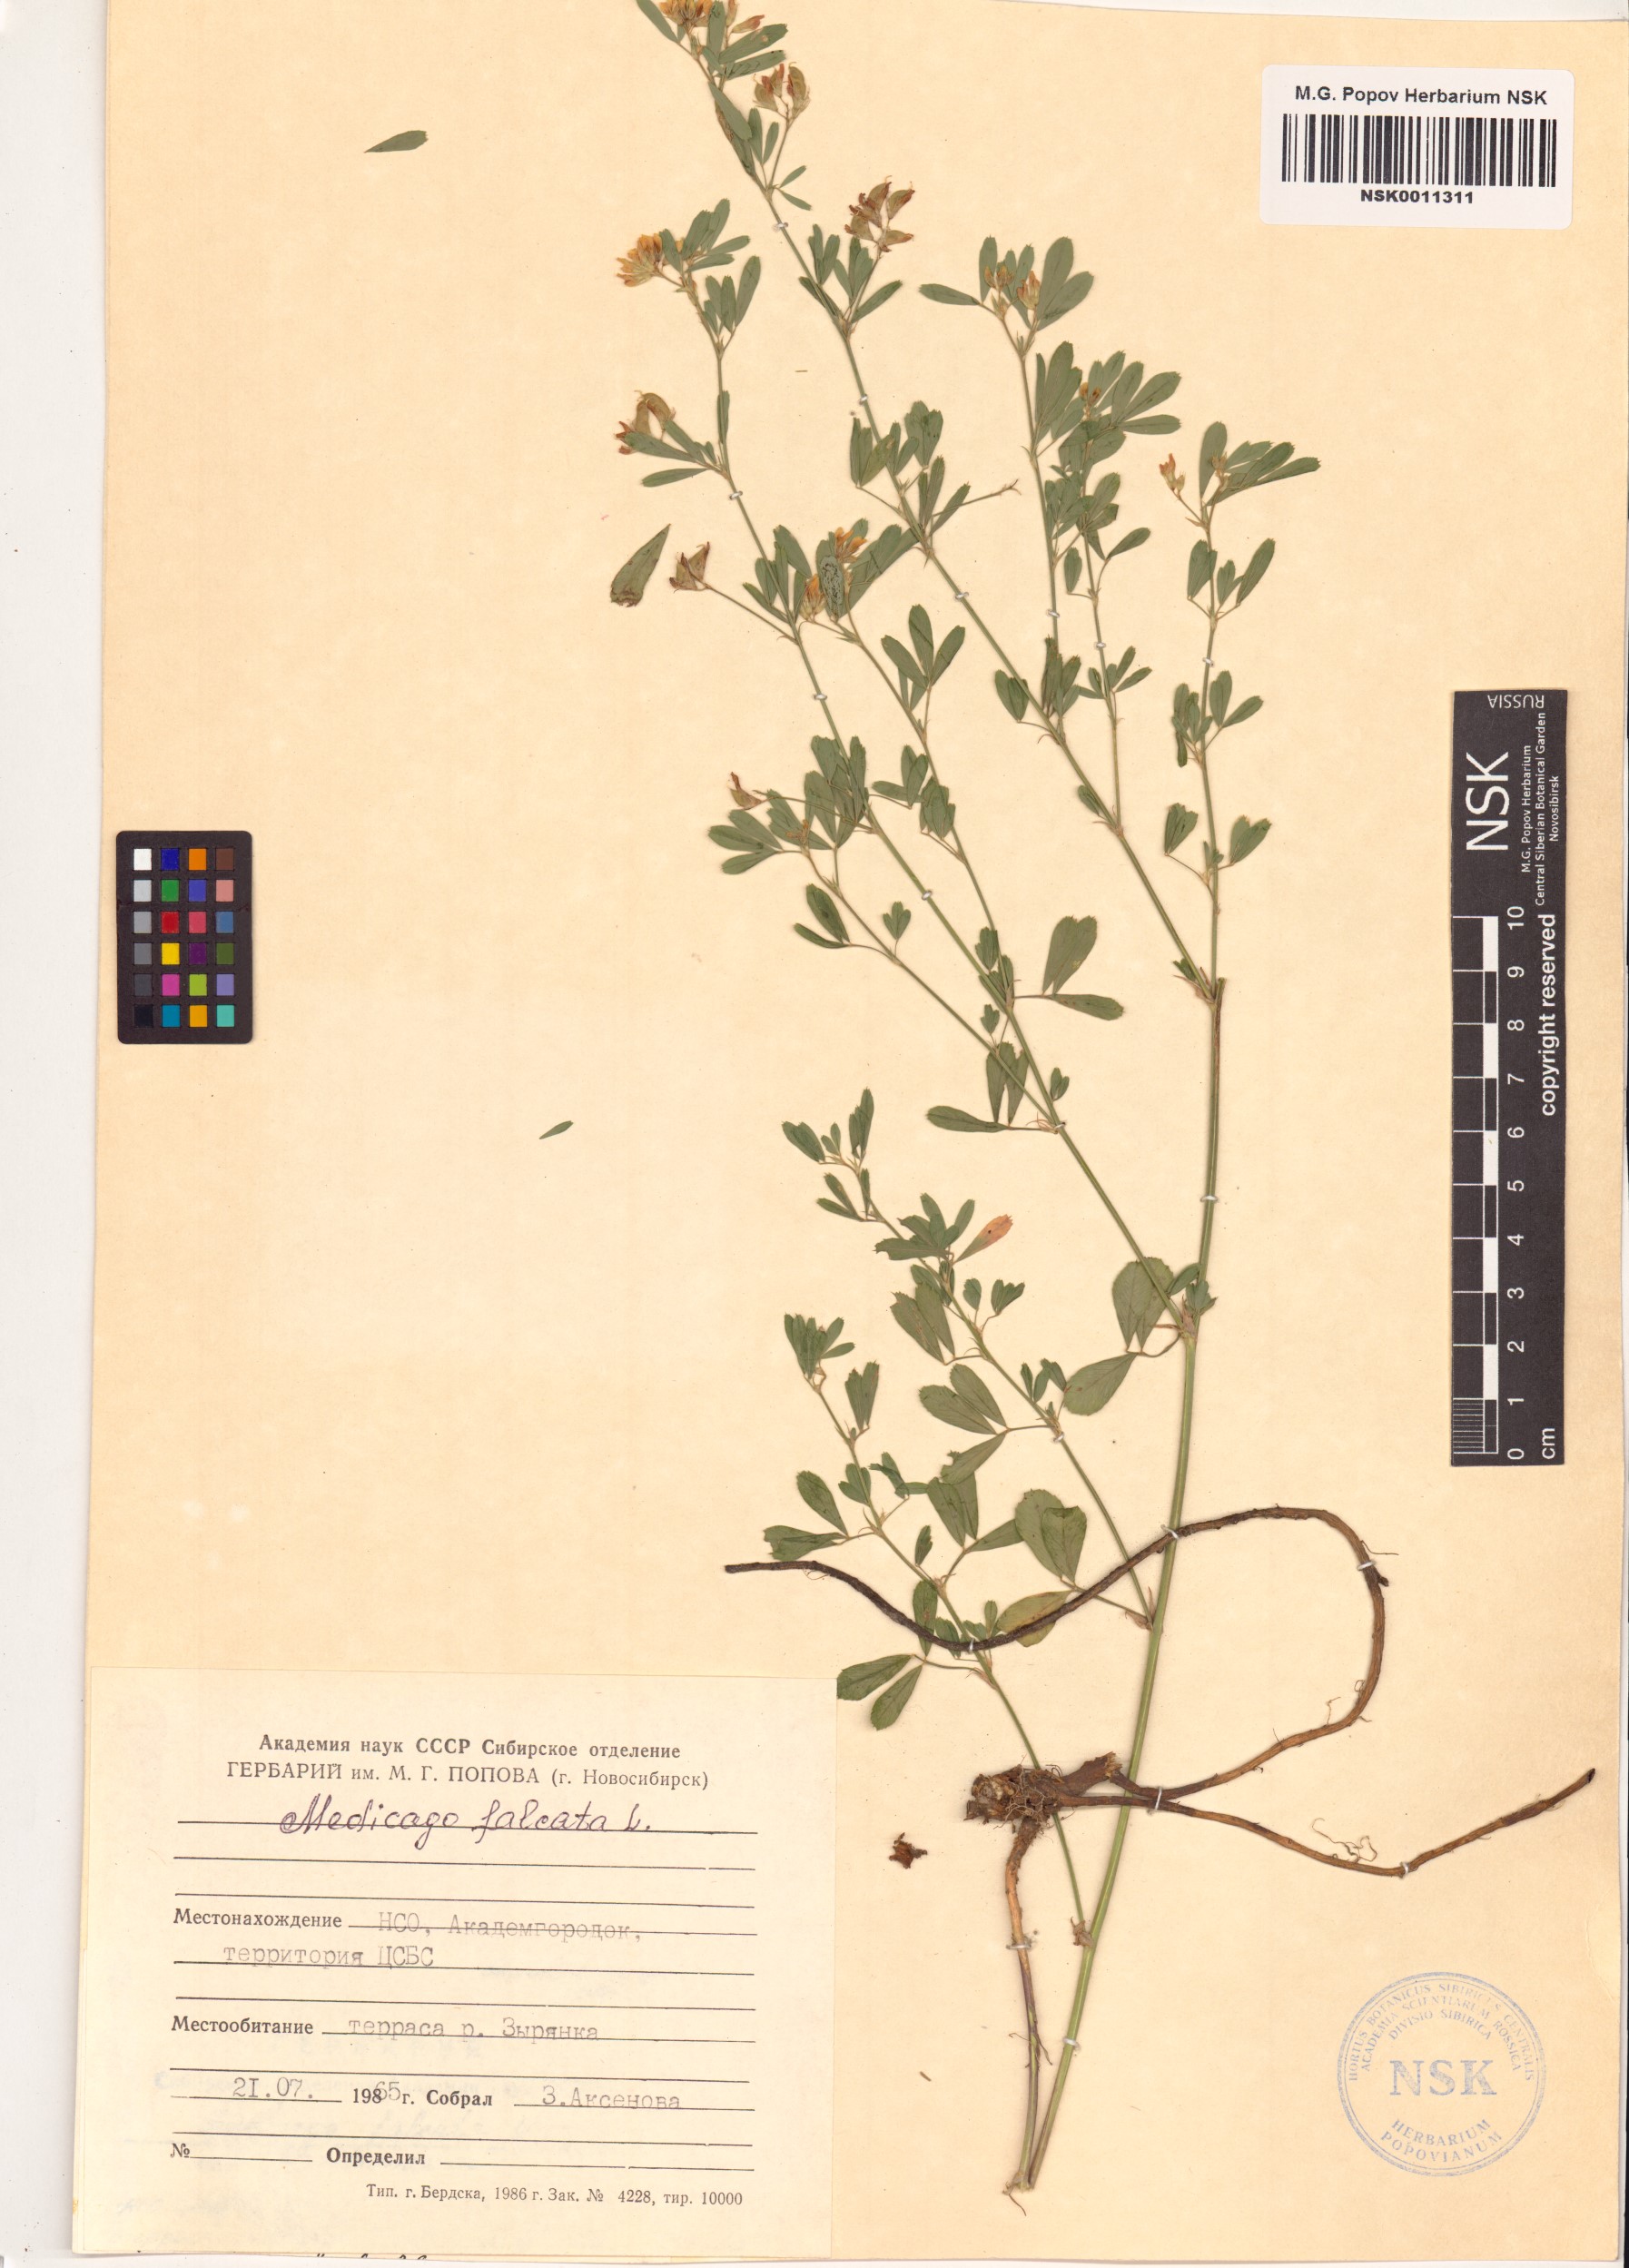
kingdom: Plantae
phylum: Tracheophyta
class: Magnoliopsida
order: Fabales
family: Fabaceae
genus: Medicago
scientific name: Medicago falcata
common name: Sickle medick
